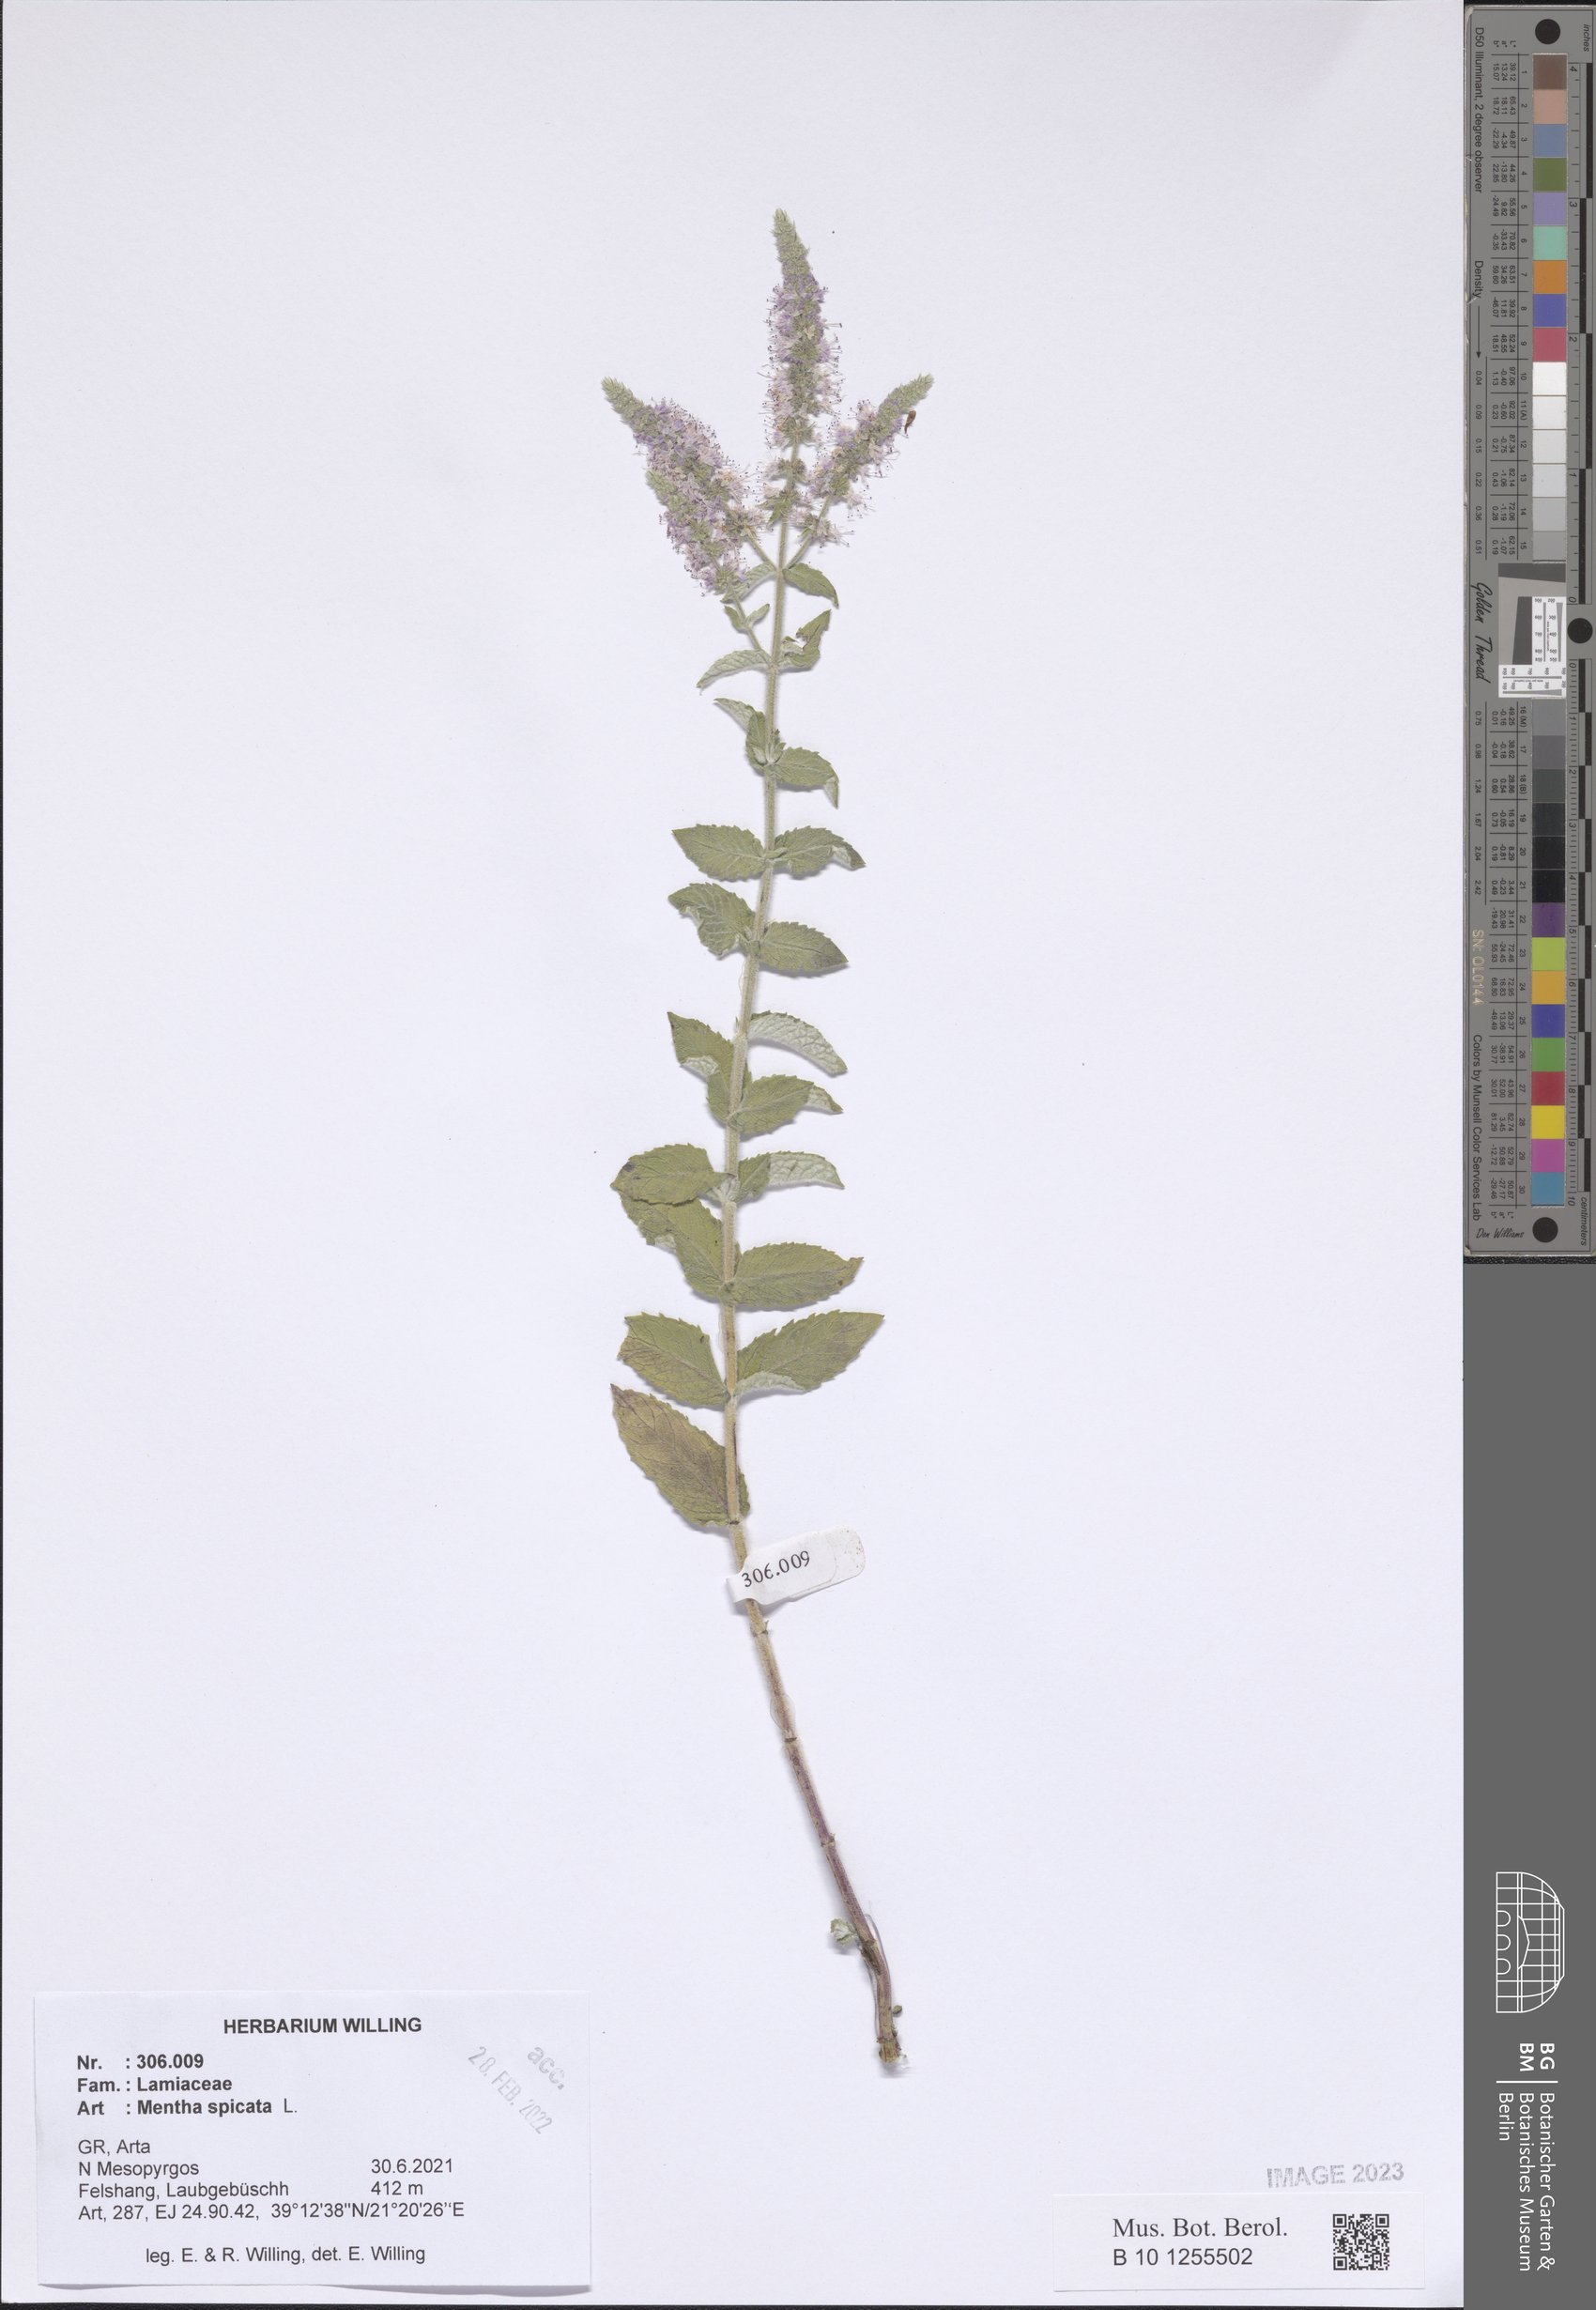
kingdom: Plantae
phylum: Tracheophyta
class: Magnoliopsida
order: Lamiales
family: Lamiaceae
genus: Mentha
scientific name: Mentha spicata
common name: Spearmint
